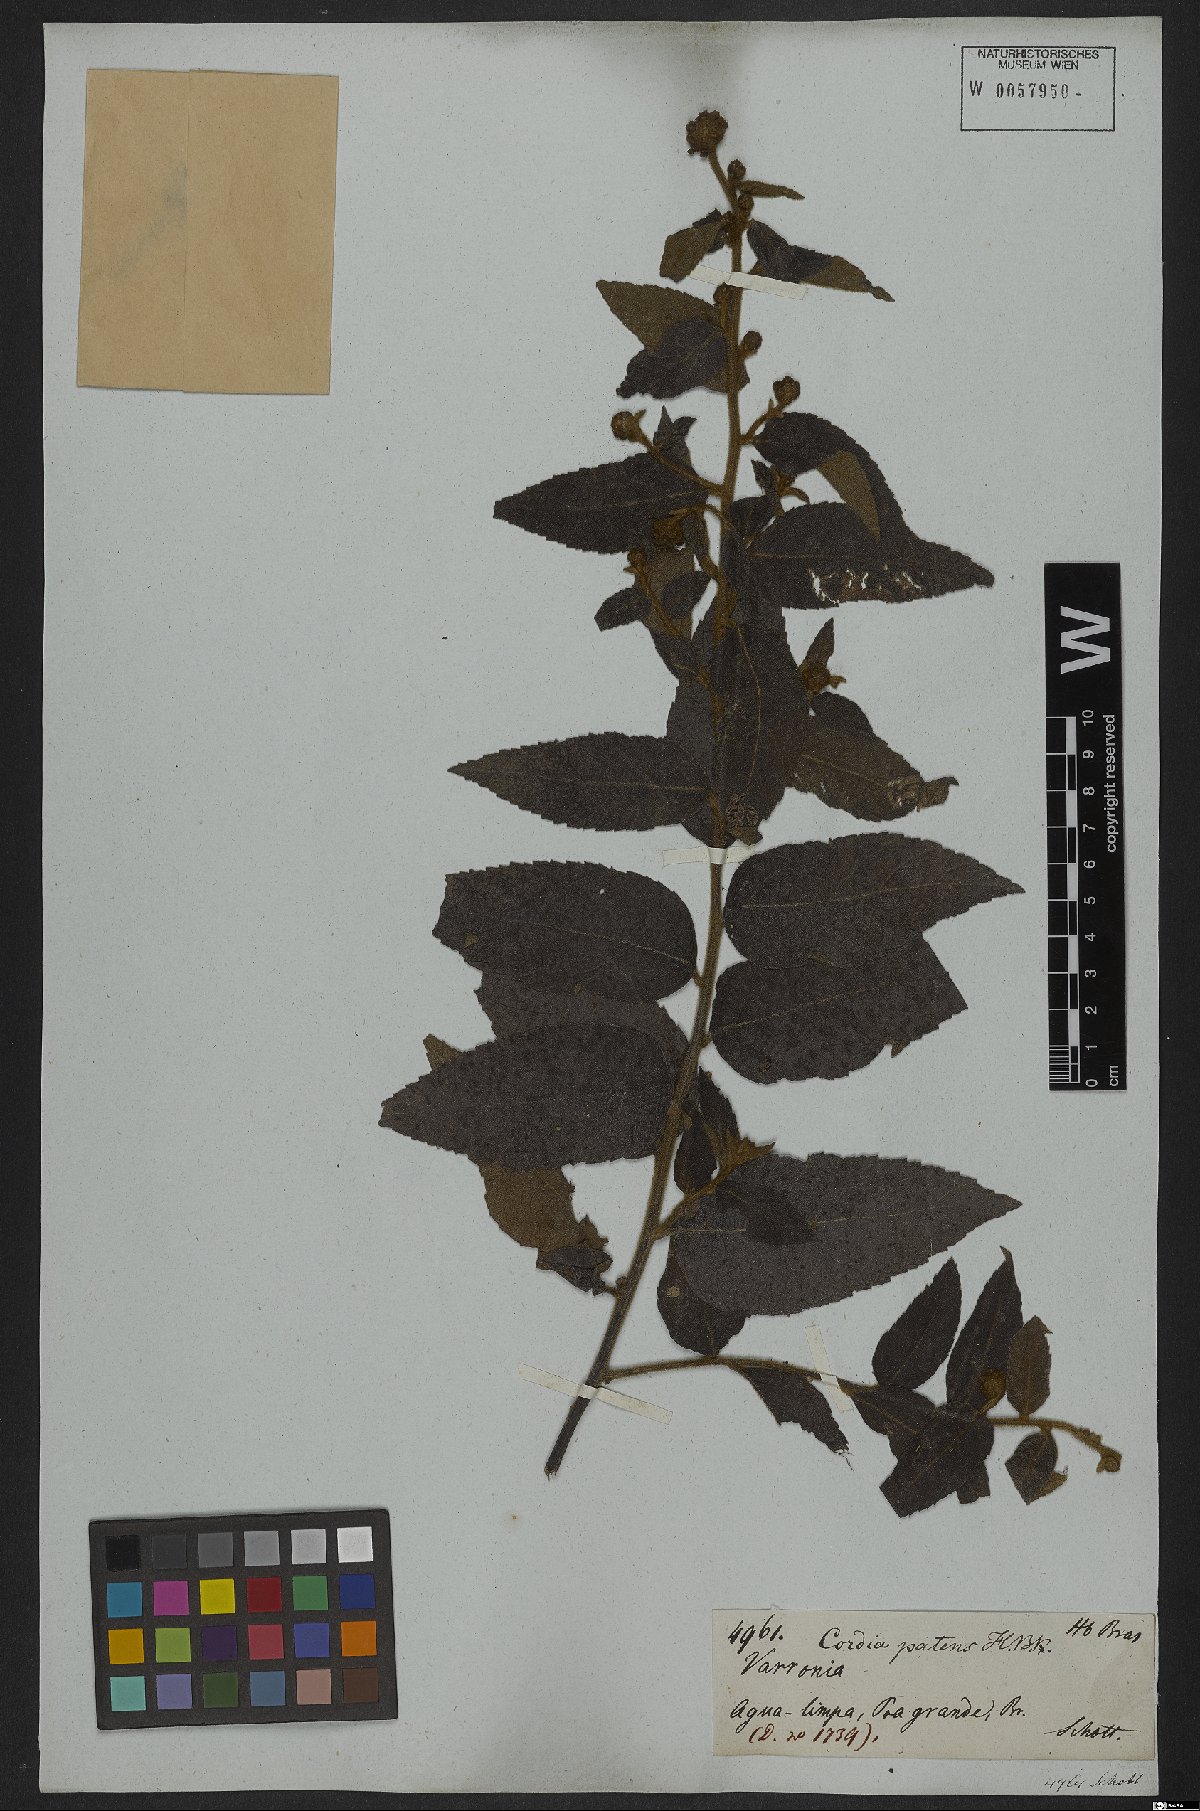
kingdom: Plantae
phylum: Tracheophyta
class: Magnoliopsida
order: Boraginales
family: Cordiaceae
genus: Varronia
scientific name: Varronia polycephala
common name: Black-sage
